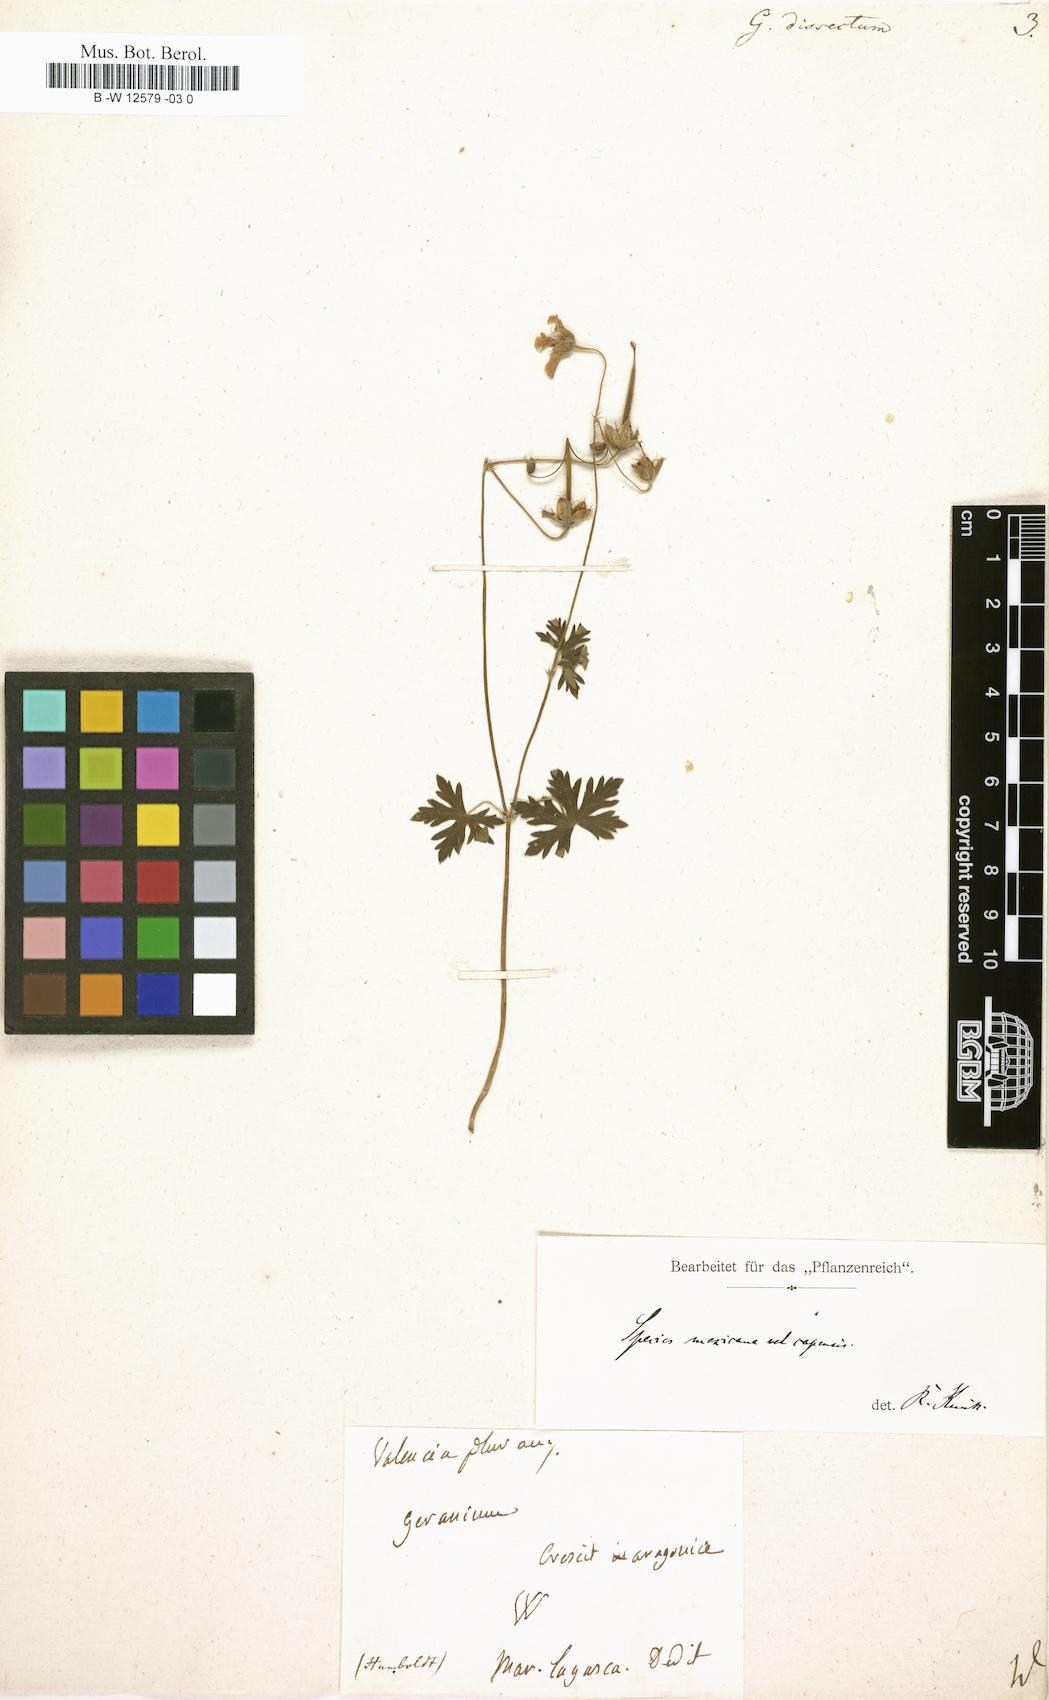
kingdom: Plantae
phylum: Tracheophyta
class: Magnoliopsida
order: Geraniales
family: Geraniaceae
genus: Geranium
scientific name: Geranium dissectum
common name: Cut-leaved crane's-bill
